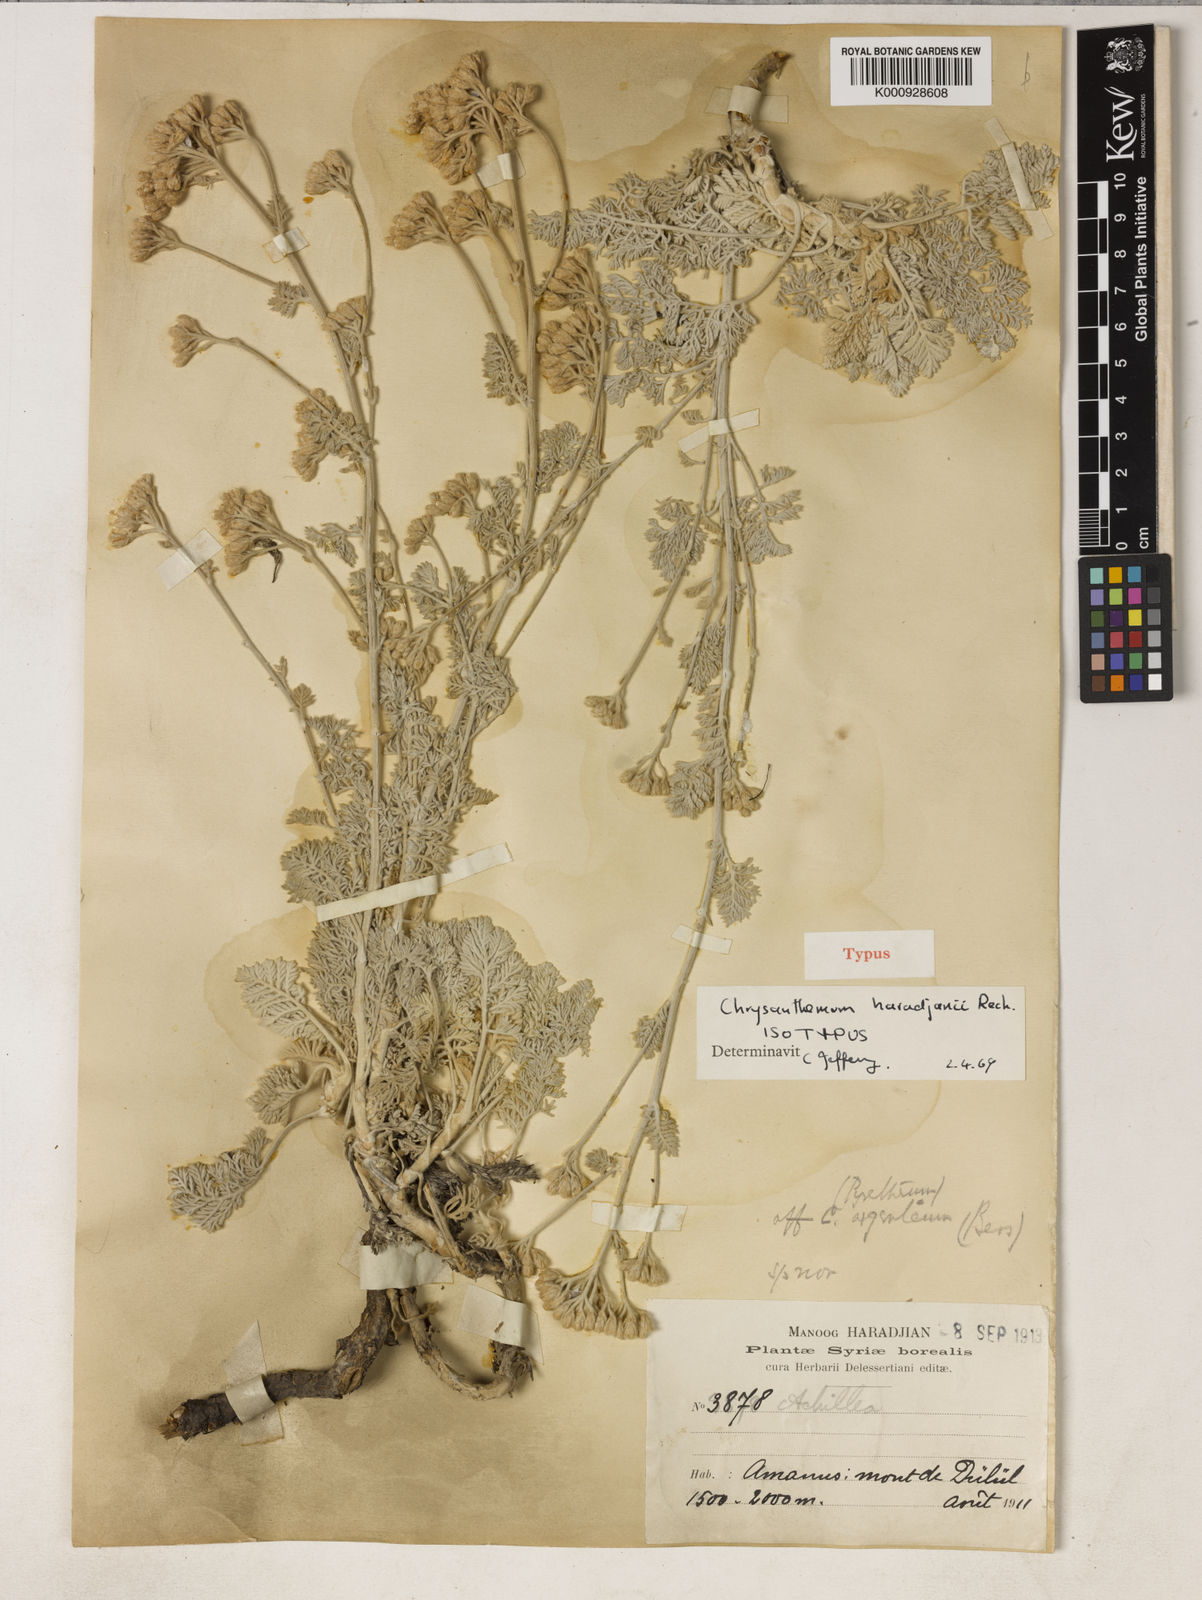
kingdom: Plantae
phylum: Tracheophyta
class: Magnoliopsida
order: Asterales
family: Asteraceae
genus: Tanacetum
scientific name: Tanacetum haradjanii
